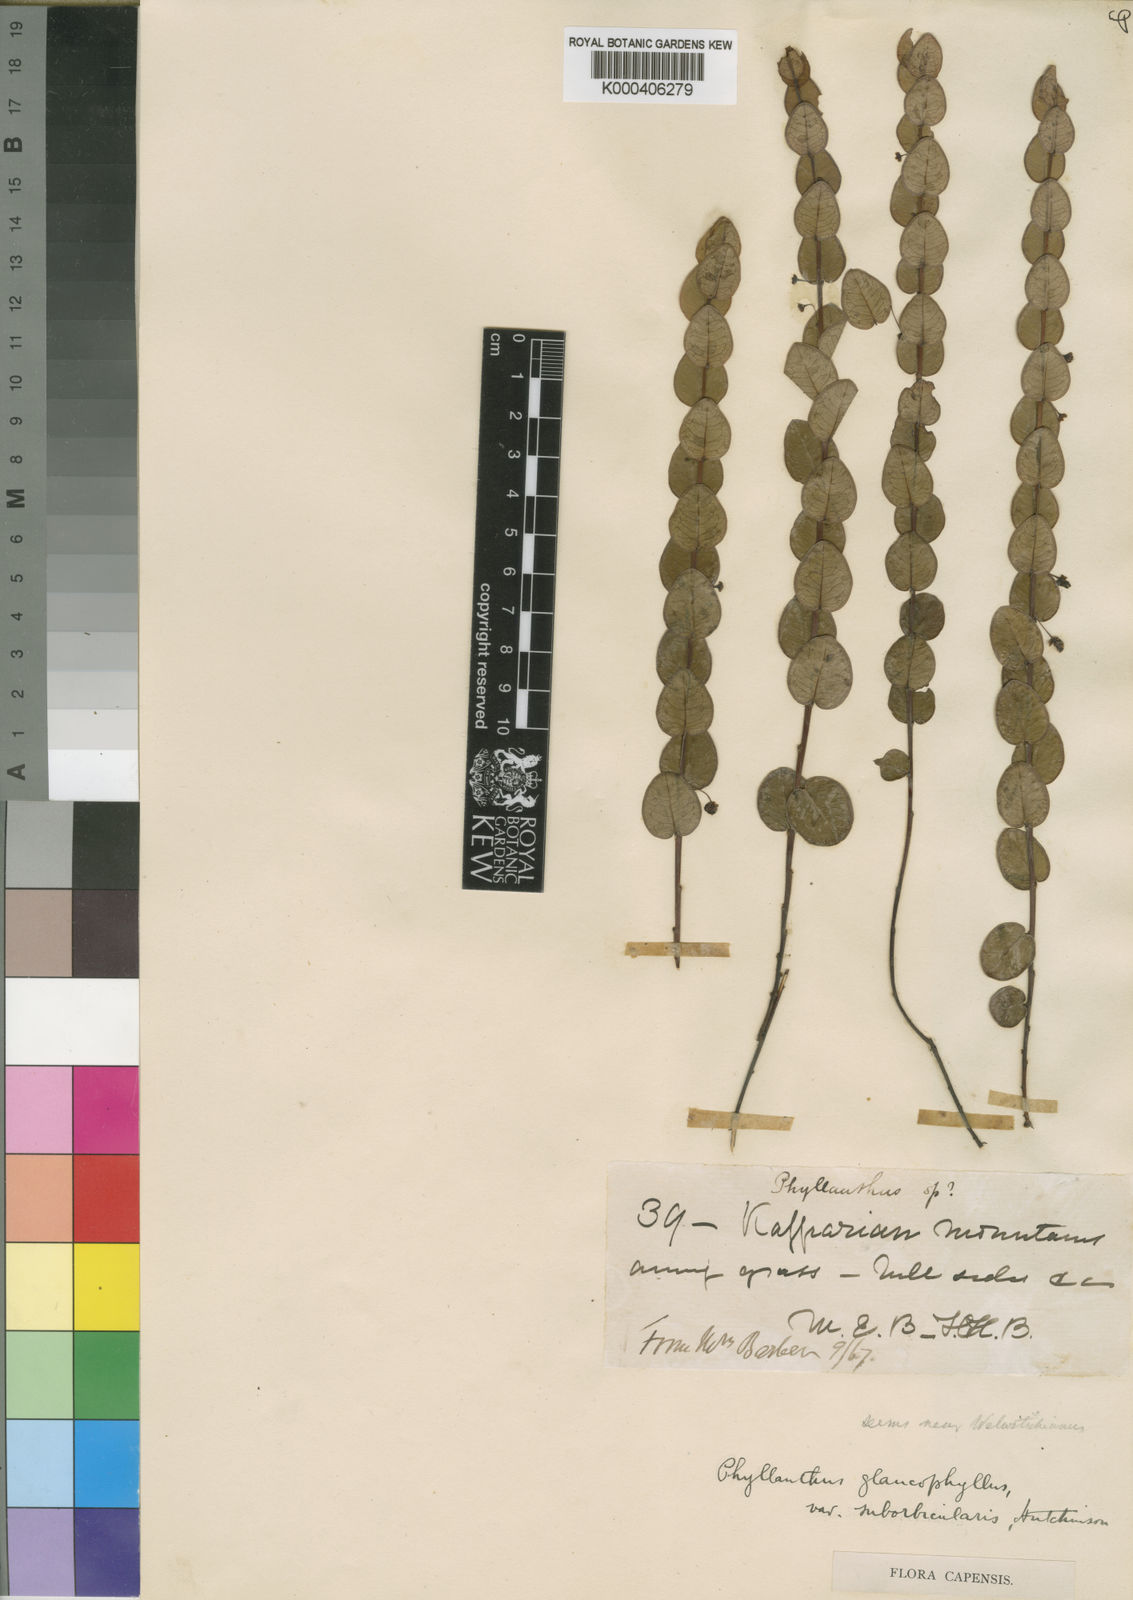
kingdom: Plantae
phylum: Tracheophyta
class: Magnoliopsida
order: Malpighiales
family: Phyllanthaceae
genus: Phyllanthus
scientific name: Phyllanthus glaucophyllus
